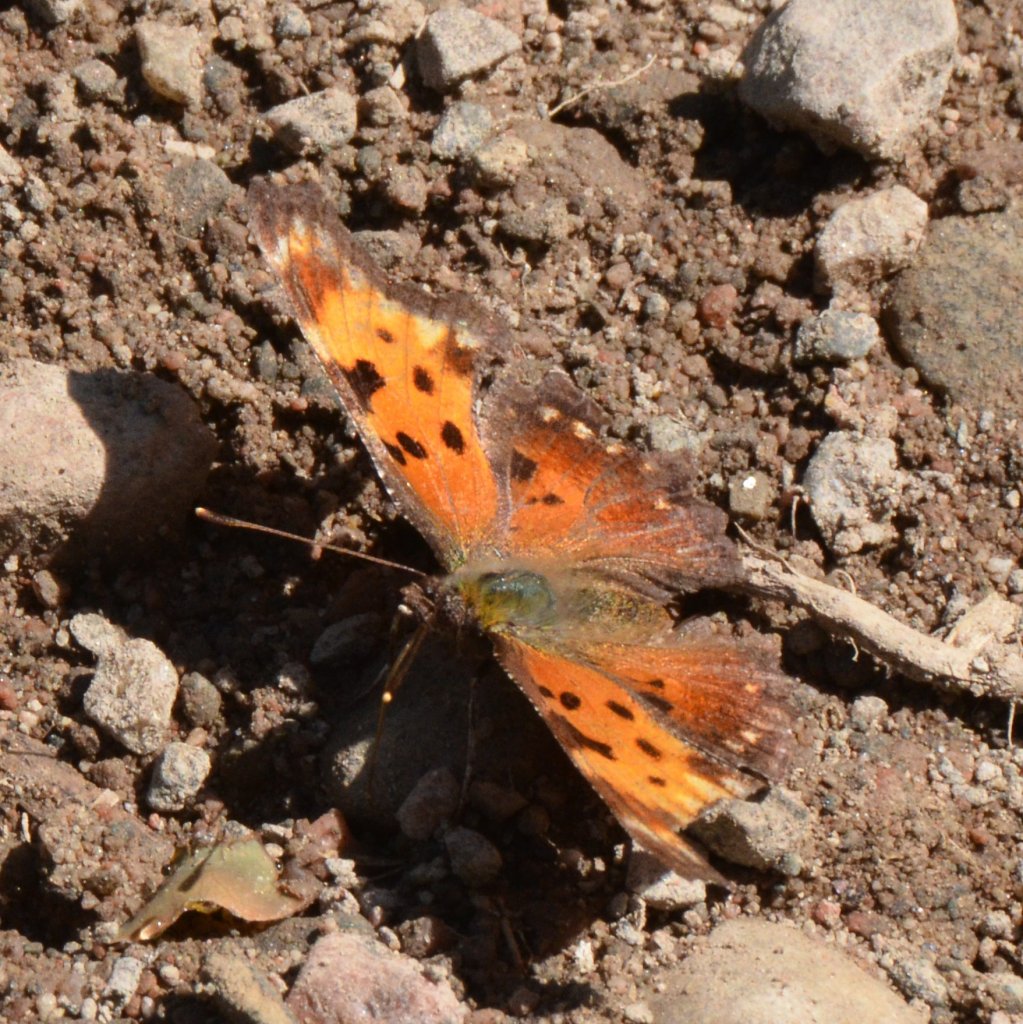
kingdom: Animalia
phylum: Arthropoda
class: Insecta
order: Lepidoptera
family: Nymphalidae
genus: Polygonia
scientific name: Polygonia progne
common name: Gray Comma
